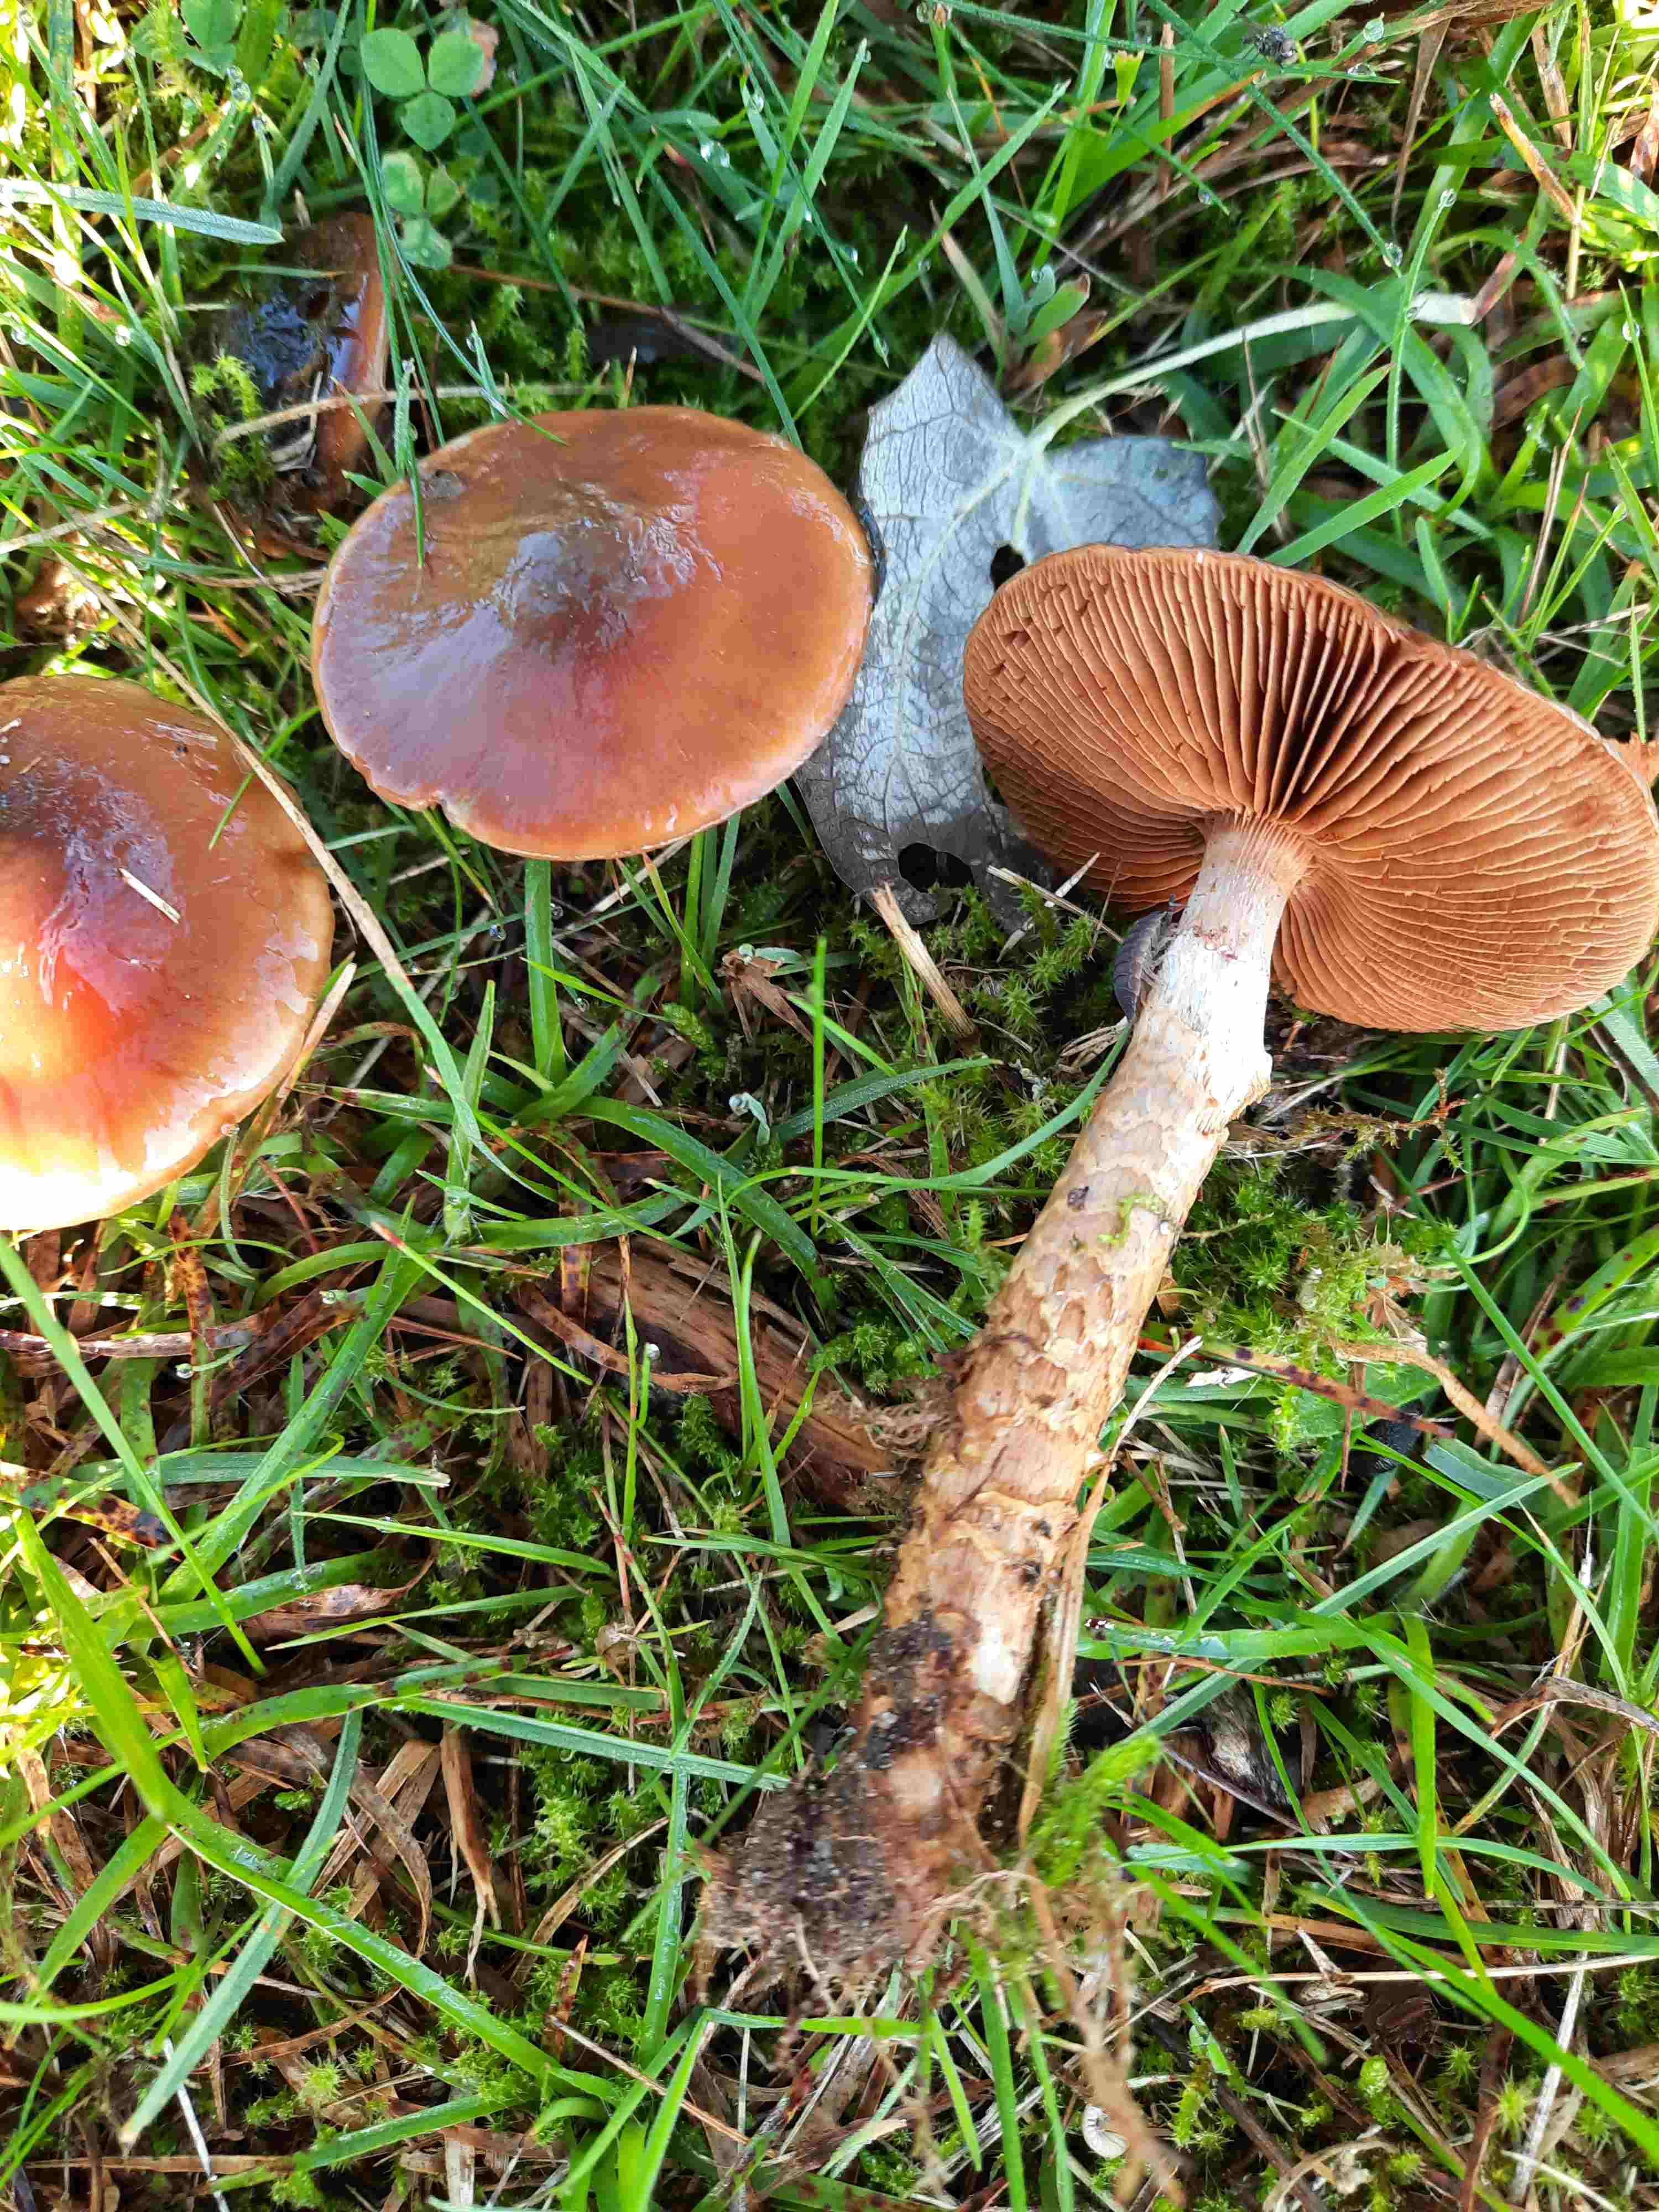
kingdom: Fungi
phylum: Basidiomycota
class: Agaricomycetes
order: Agaricales
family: Cortinariaceae
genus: Cortinarius
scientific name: Cortinarius trivialis
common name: brunslimet slørhat
